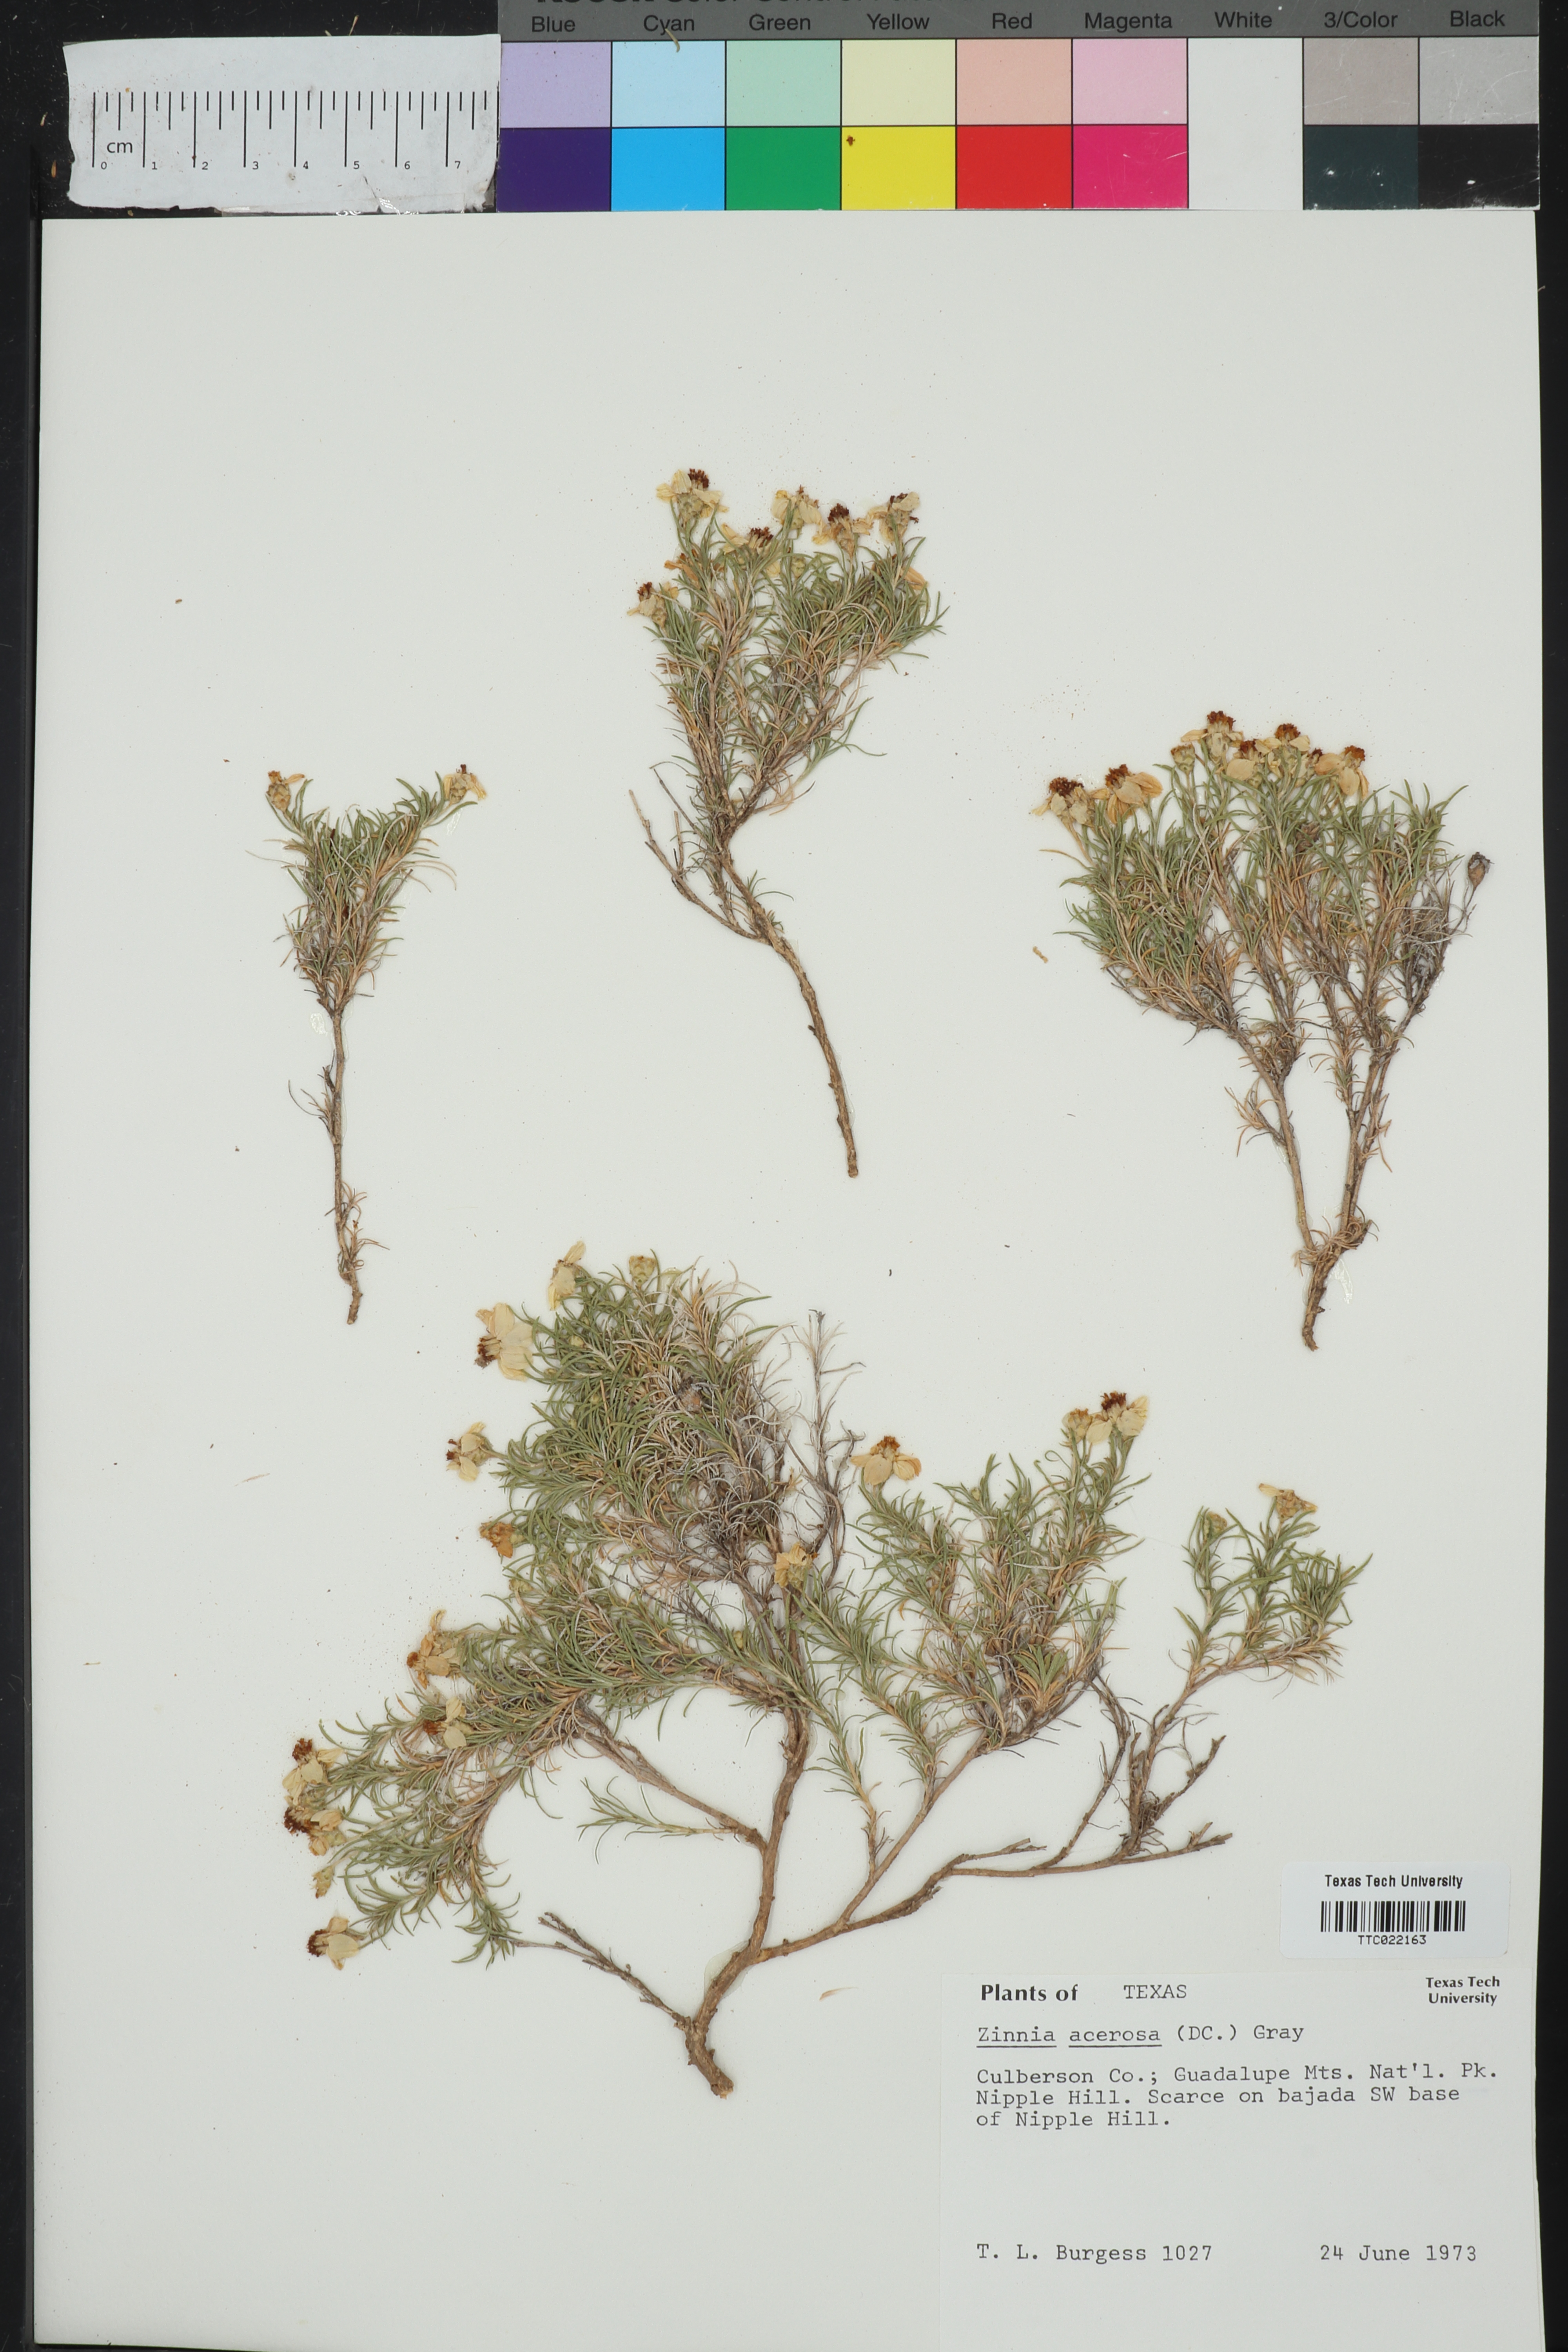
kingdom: Plantae
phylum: Tracheophyta
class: Magnoliopsida
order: Asterales
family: Asteraceae
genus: Zinnia
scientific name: Zinnia acerosa
